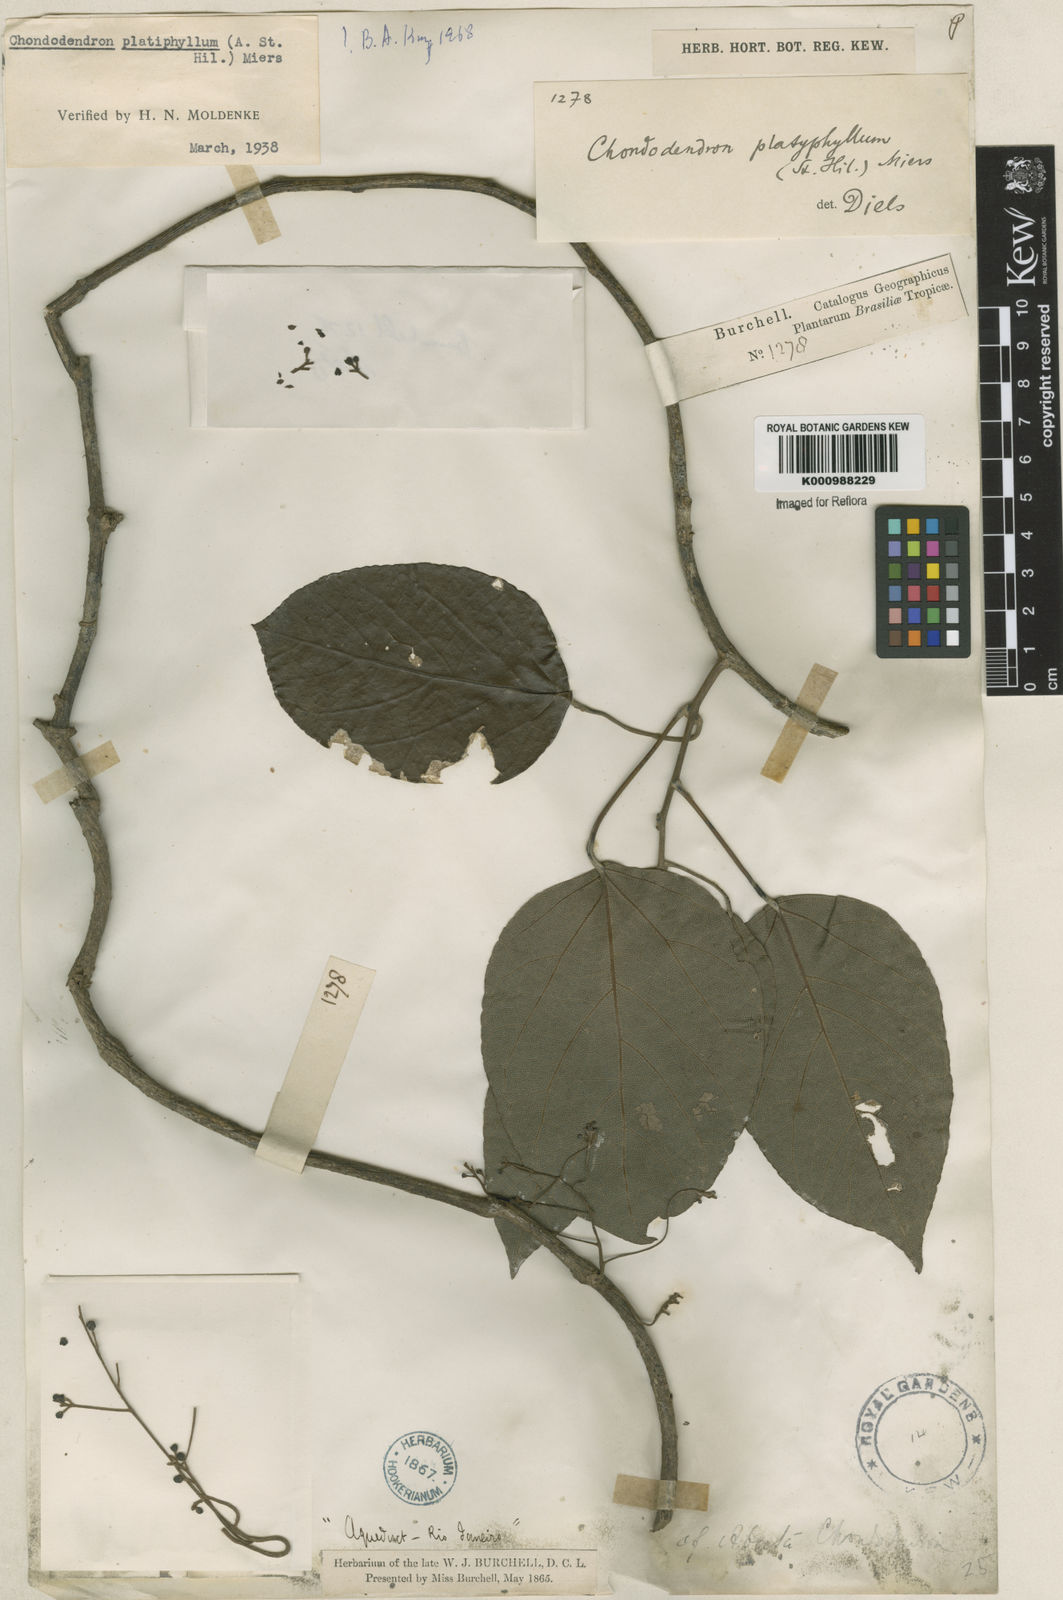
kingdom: Plantae
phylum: Tracheophyta
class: Magnoliopsida
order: Ranunculales
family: Menispermaceae
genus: Chondrodendron
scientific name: Chondrodendron platyphyllum
